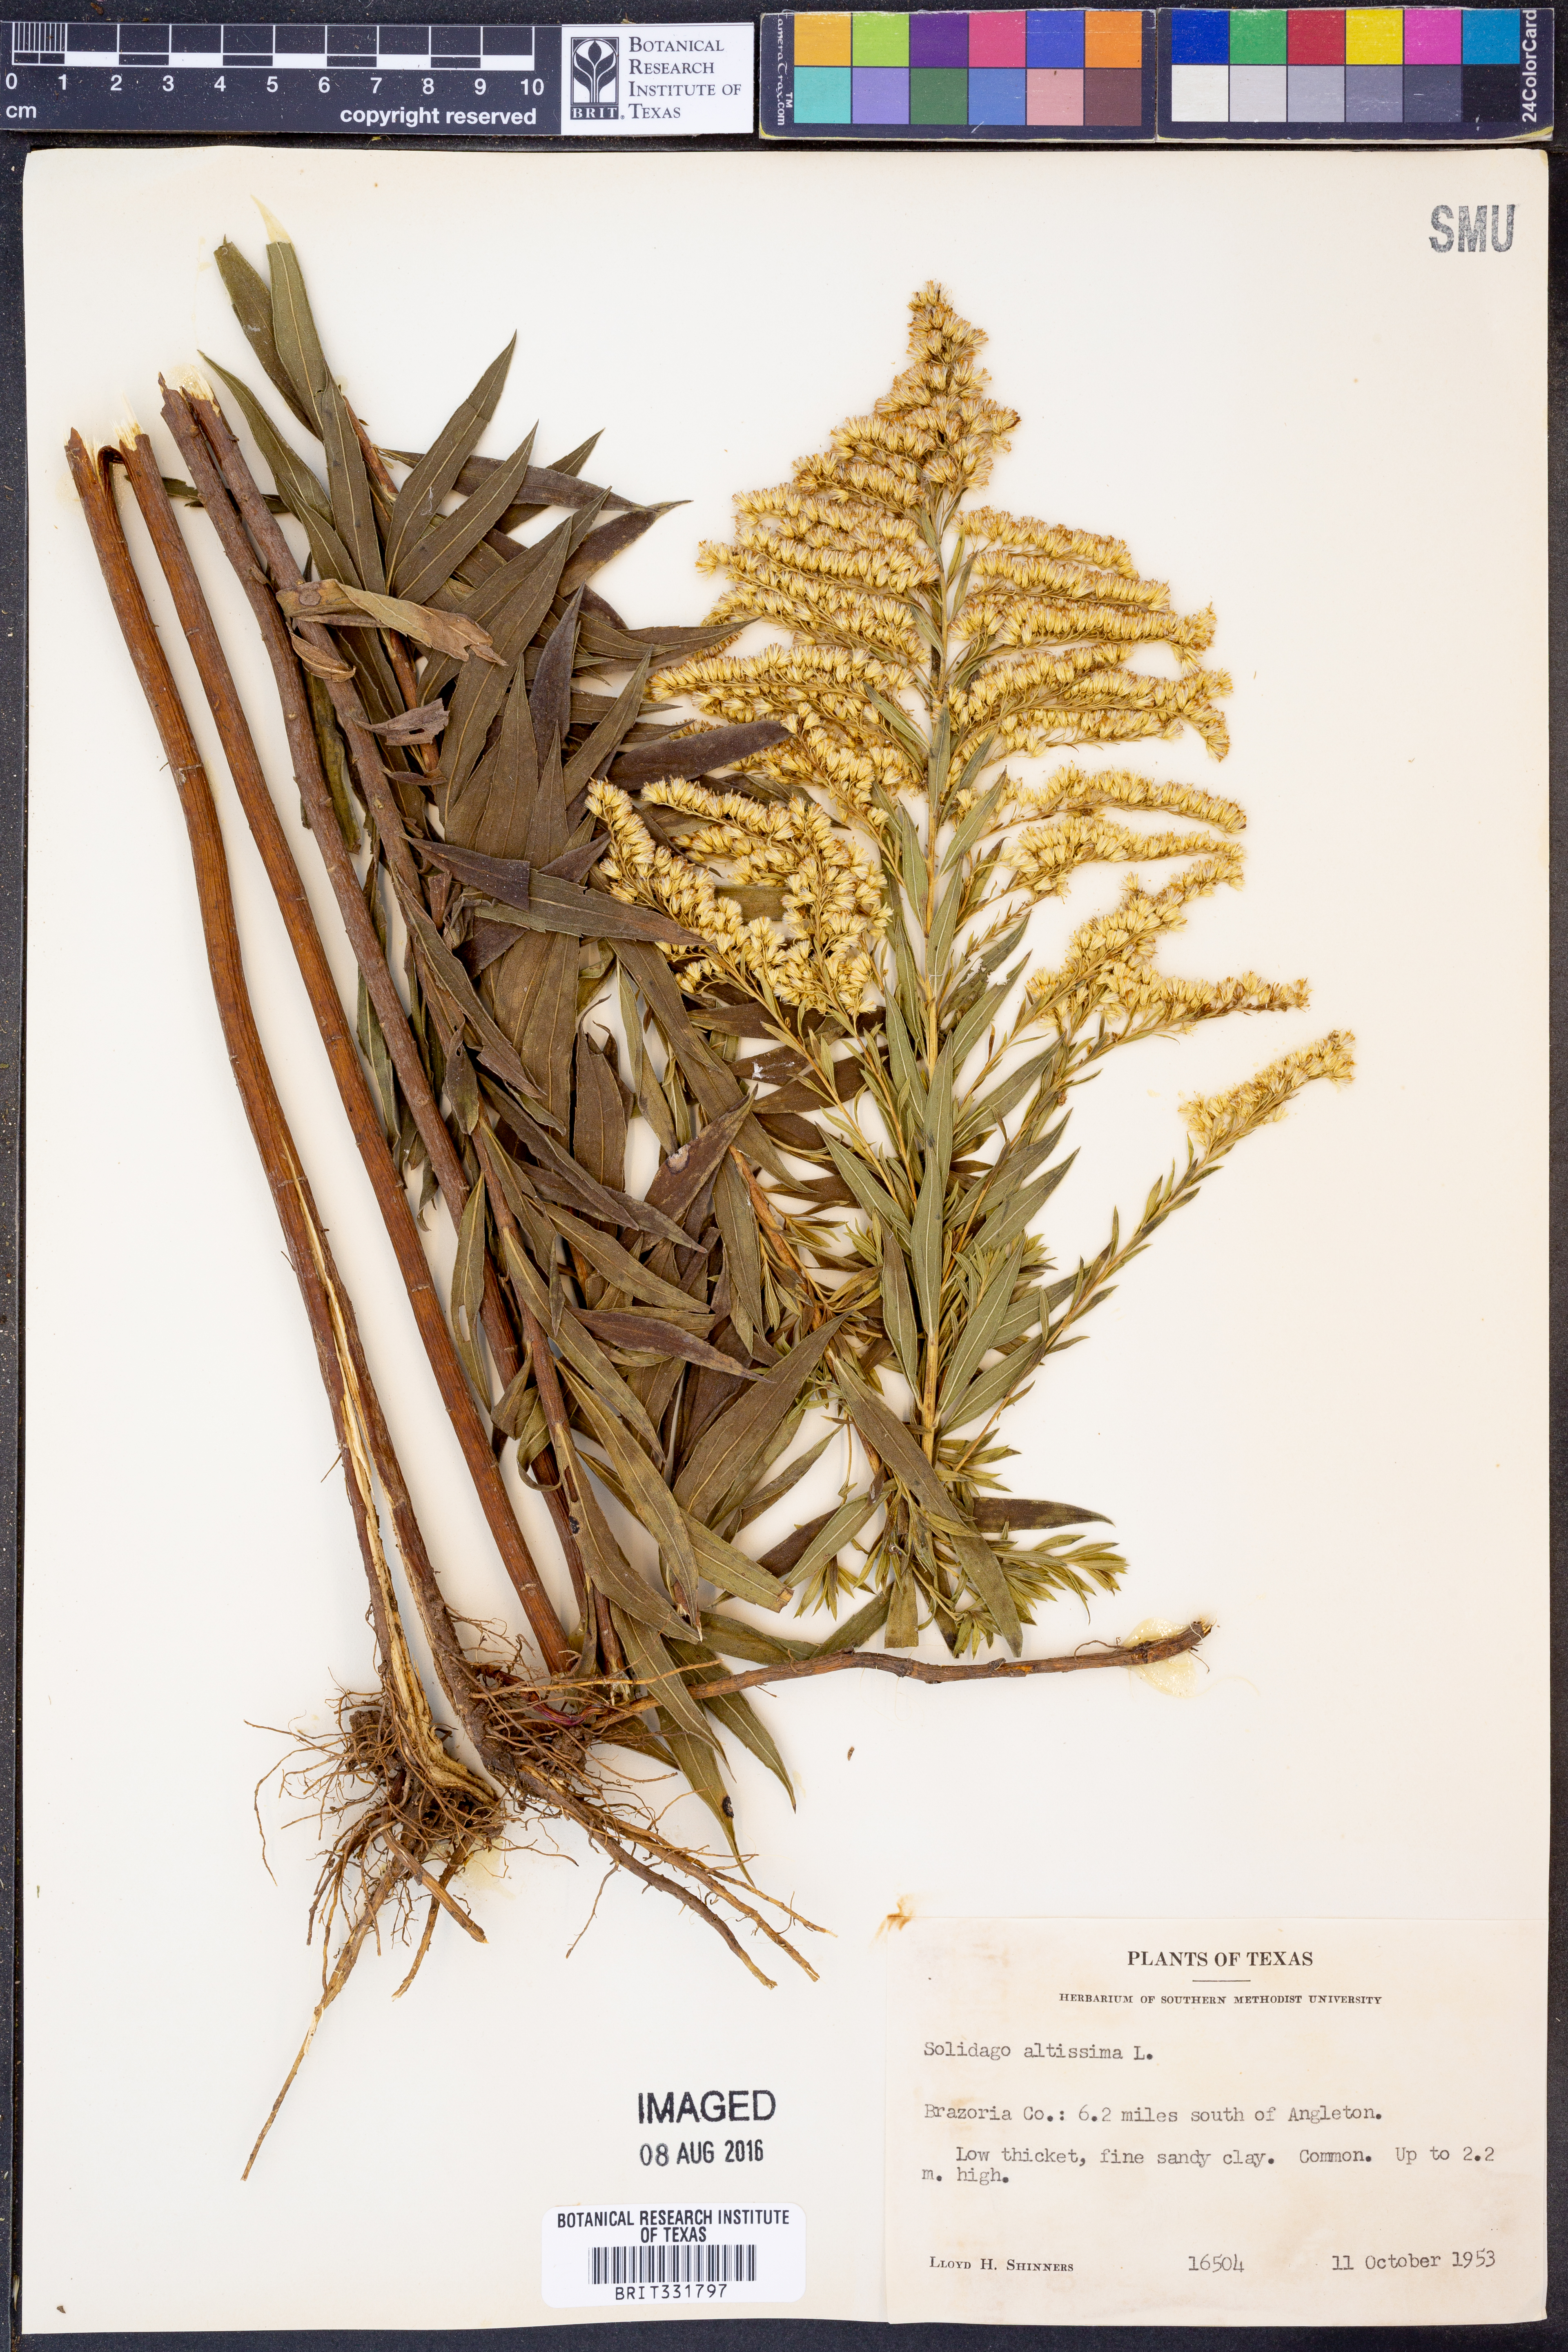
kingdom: Plantae
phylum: Tracheophyta
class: Magnoliopsida
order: Asterales
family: Asteraceae
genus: Solidago
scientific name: Solidago altissima
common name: Late goldenrod
